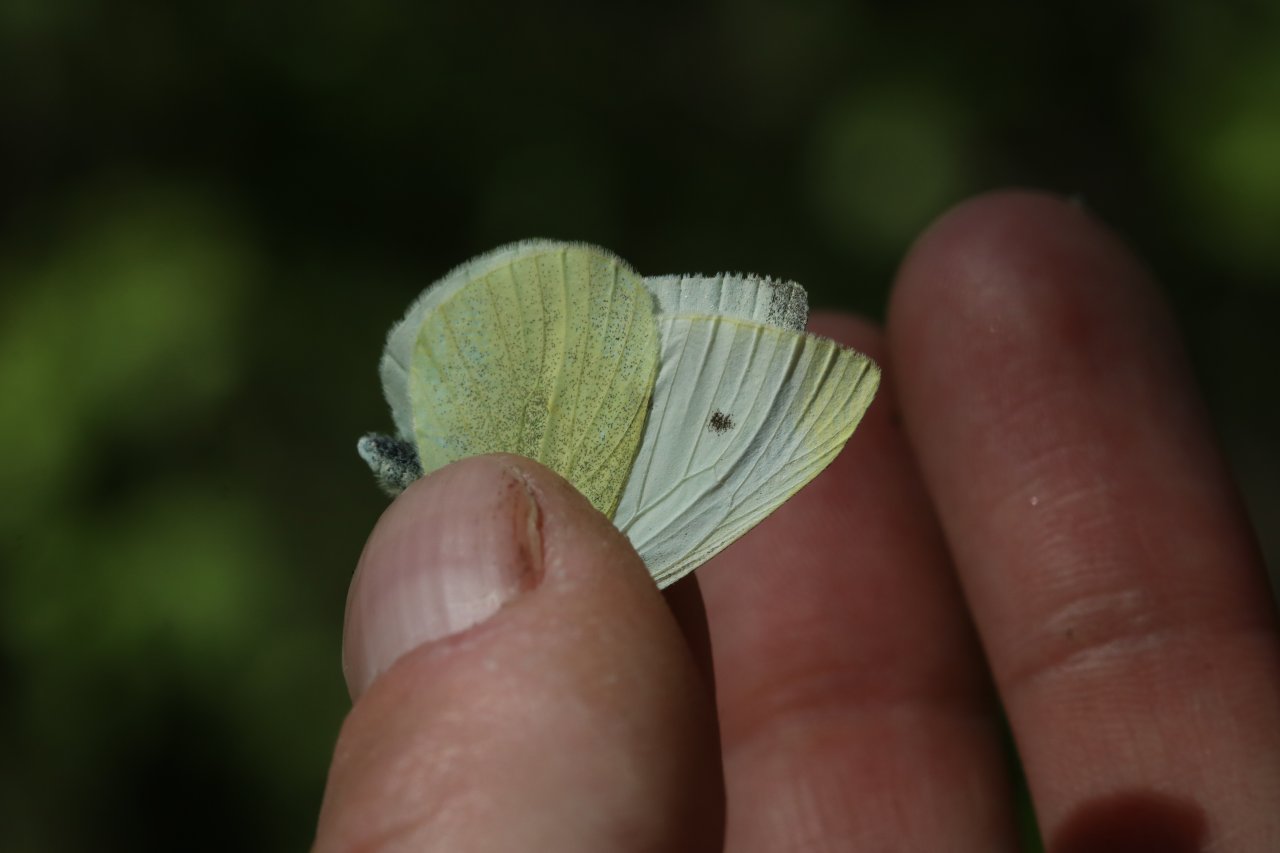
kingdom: Animalia
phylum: Arthropoda
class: Insecta
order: Lepidoptera
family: Pieridae
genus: Pieris
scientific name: Pieris rapae
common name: Cabbage White
